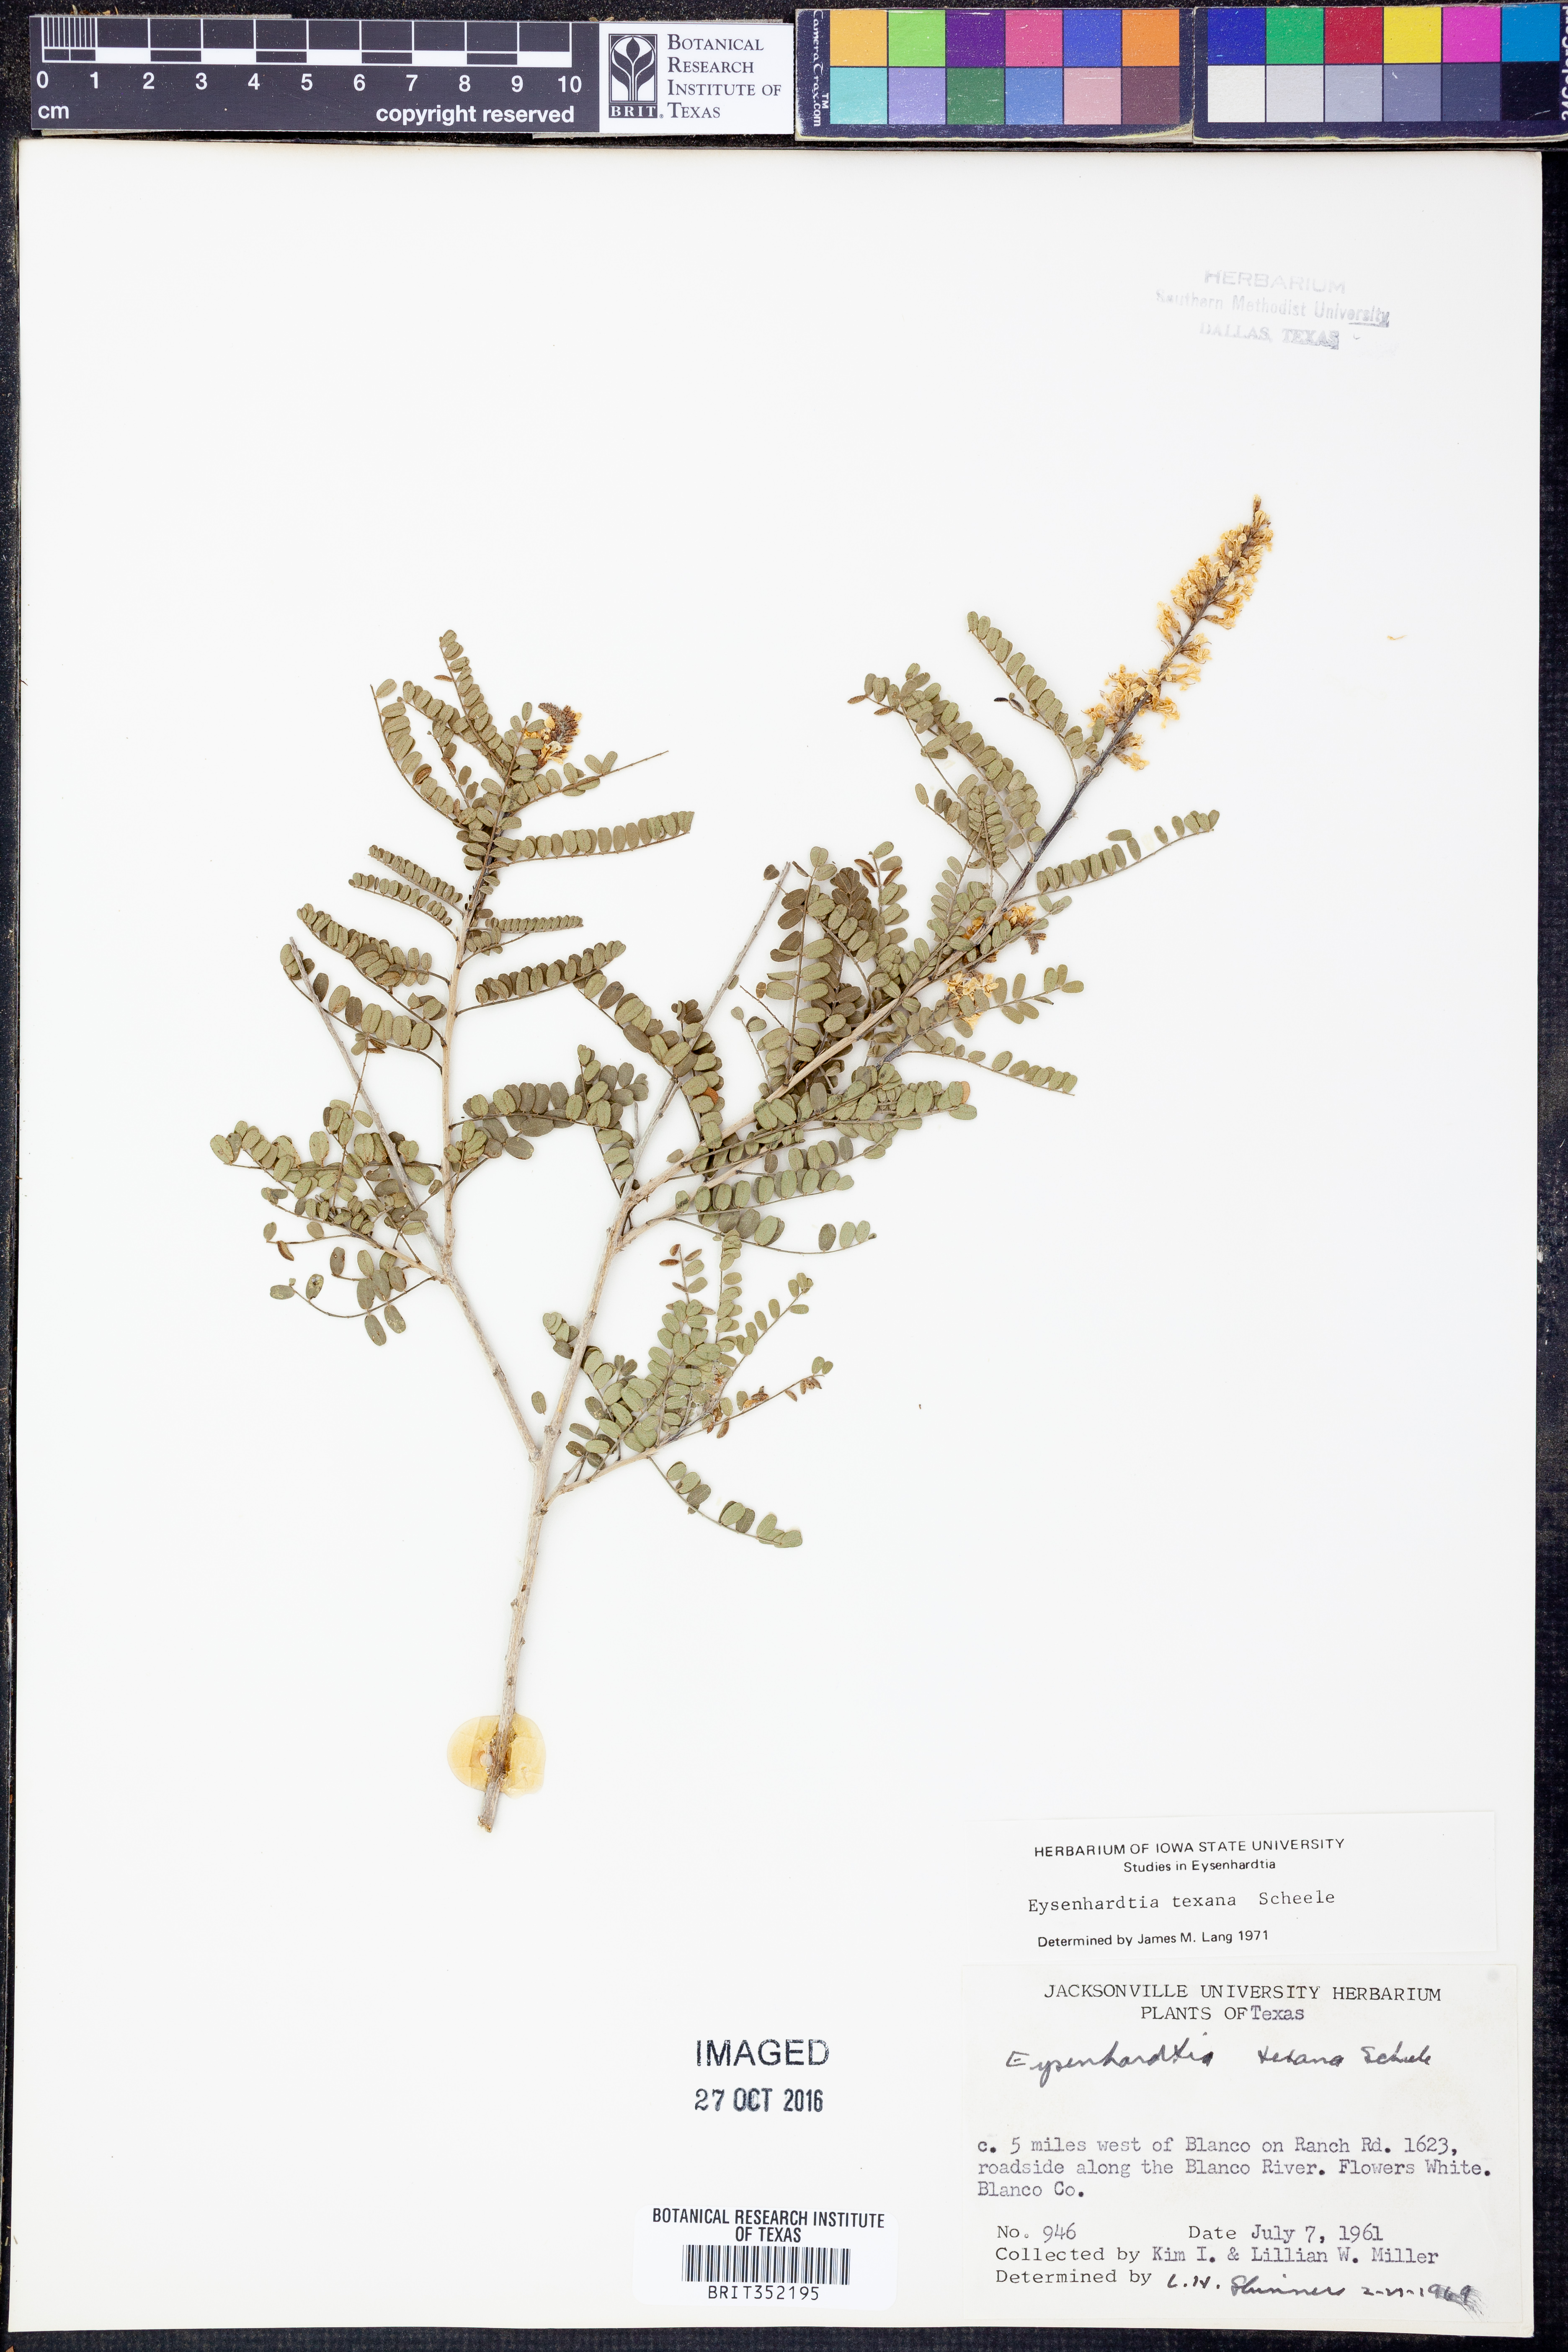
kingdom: Plantae
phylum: Tracheophyta
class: Magnoliopsida
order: Fabales
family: Fabaceae
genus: Eysenhardtia
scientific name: Eysenhardtia texana
